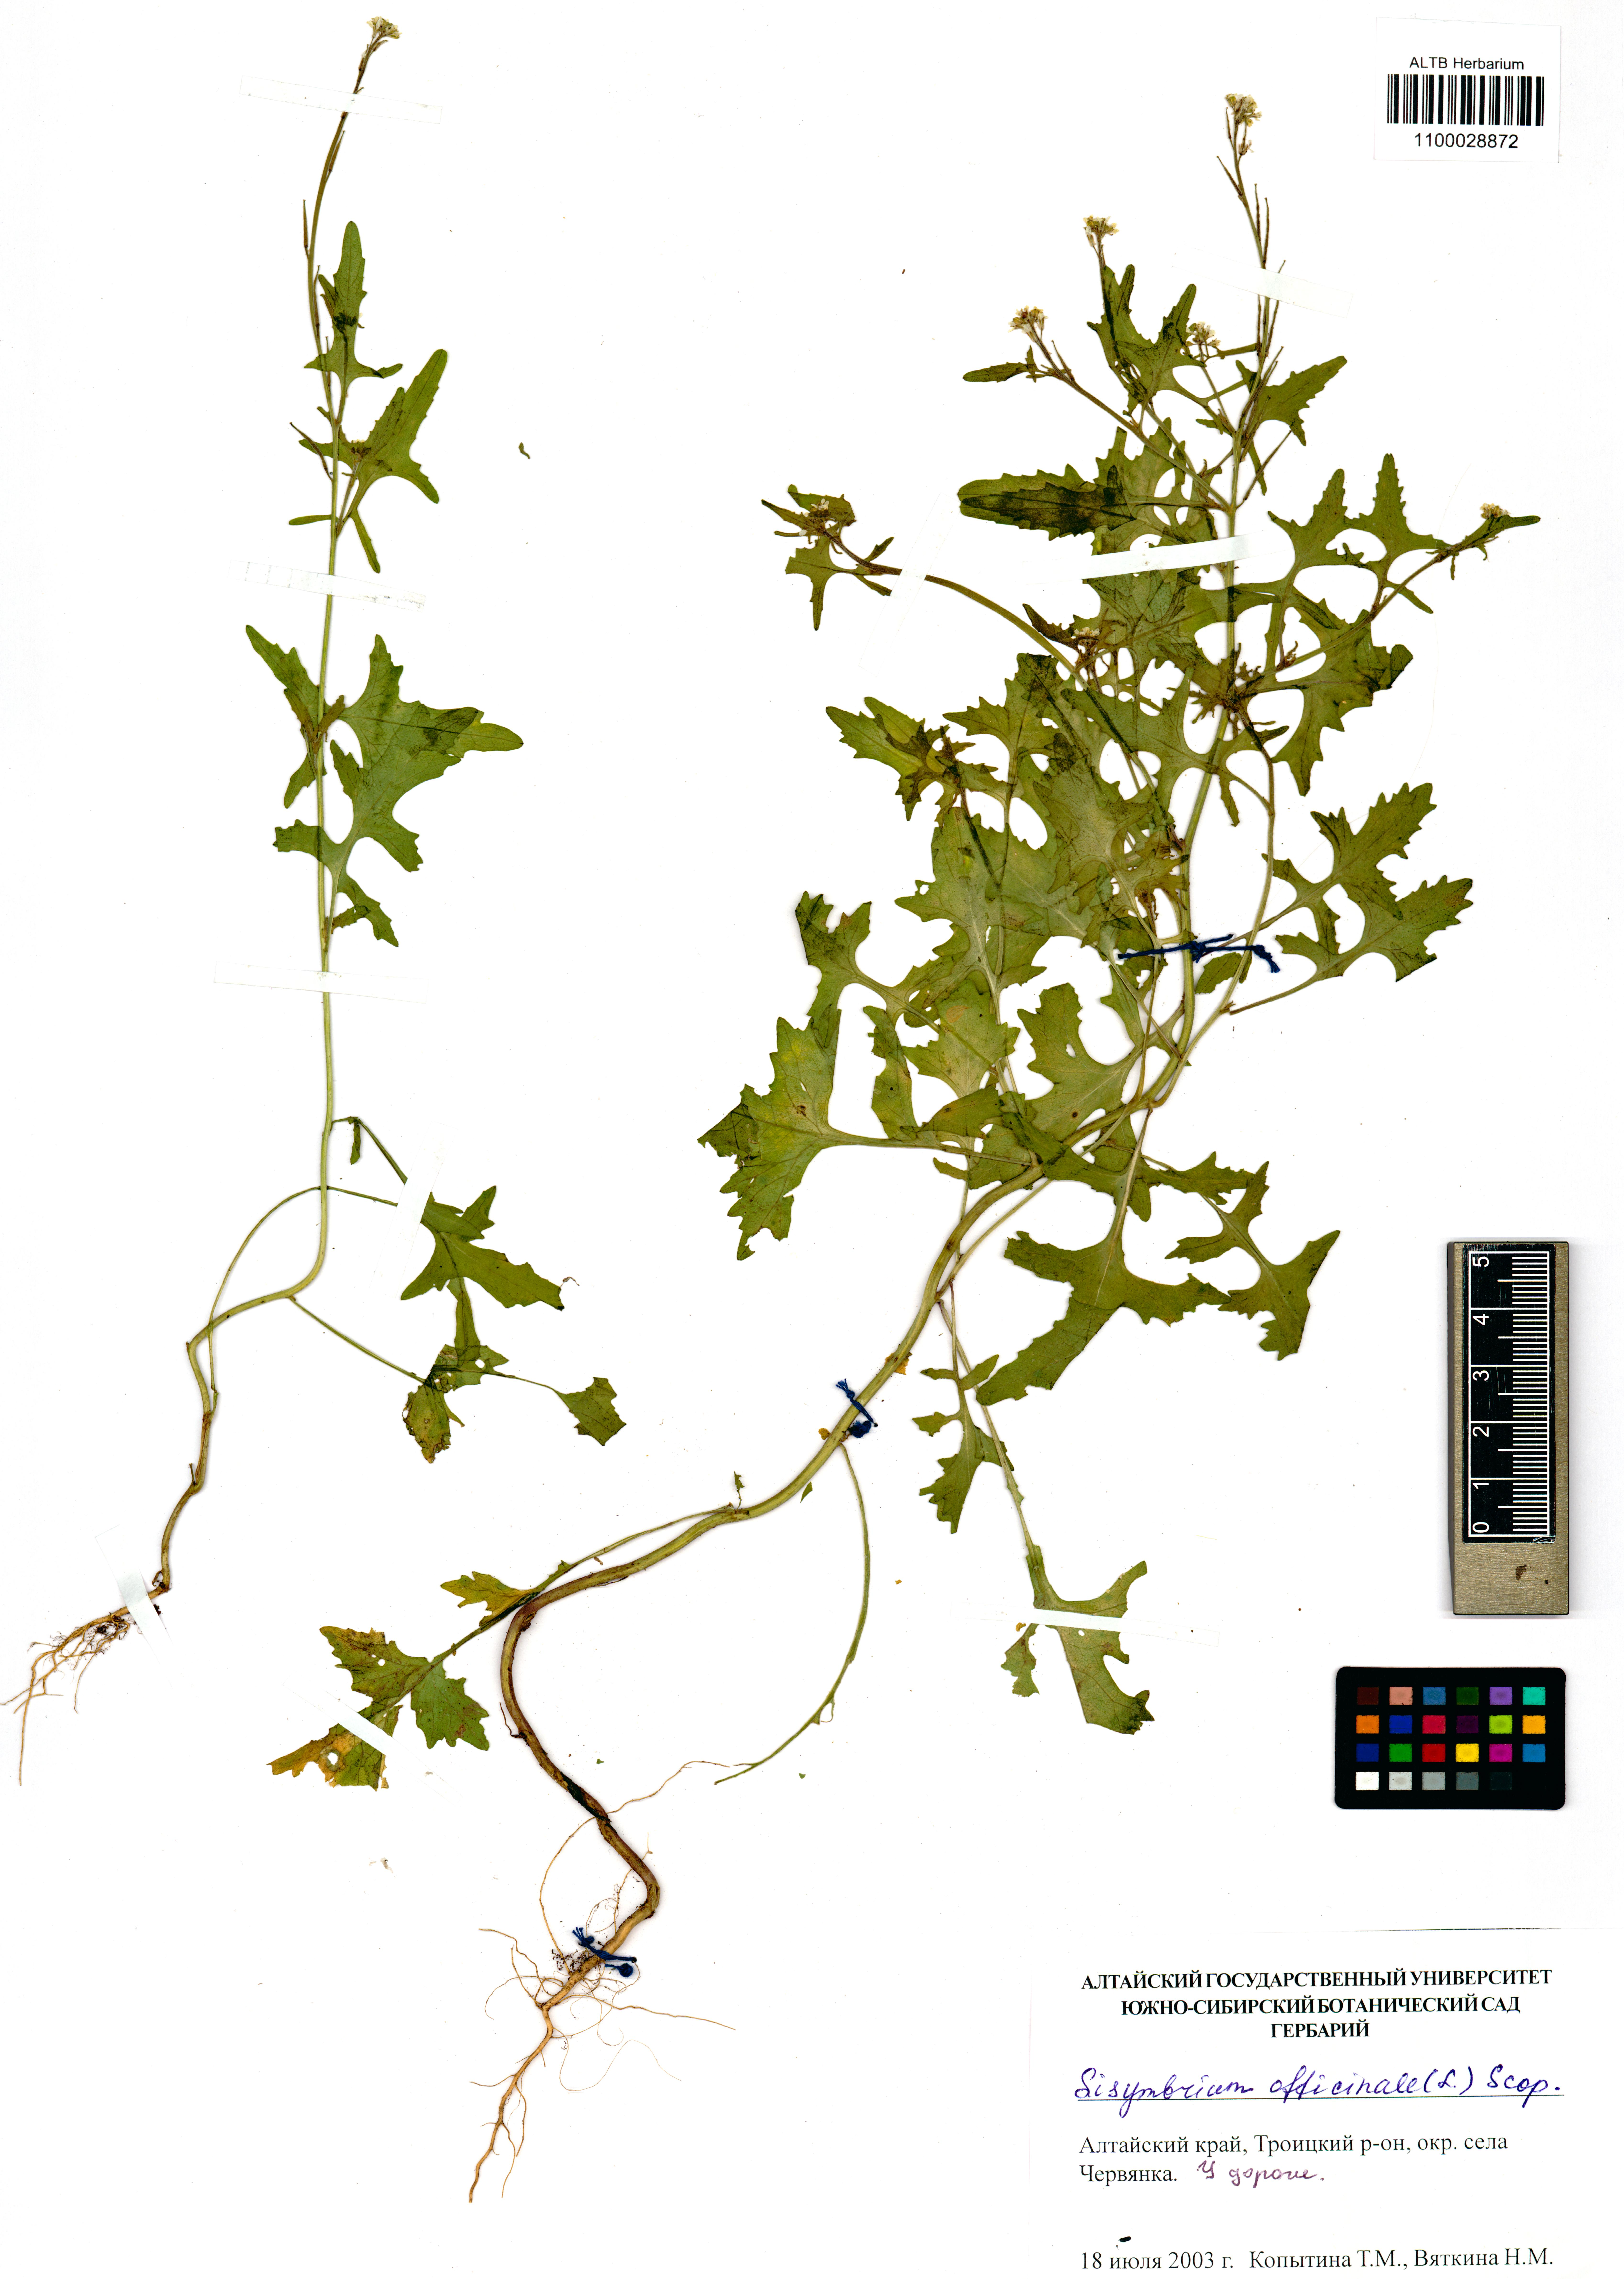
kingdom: Plantae
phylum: Tracheophyta
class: Magnoliopsida
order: Brassicales
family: Brassicaceae
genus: Sisymbrium
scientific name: Sisymbrium officinale
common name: Hedge mustard
